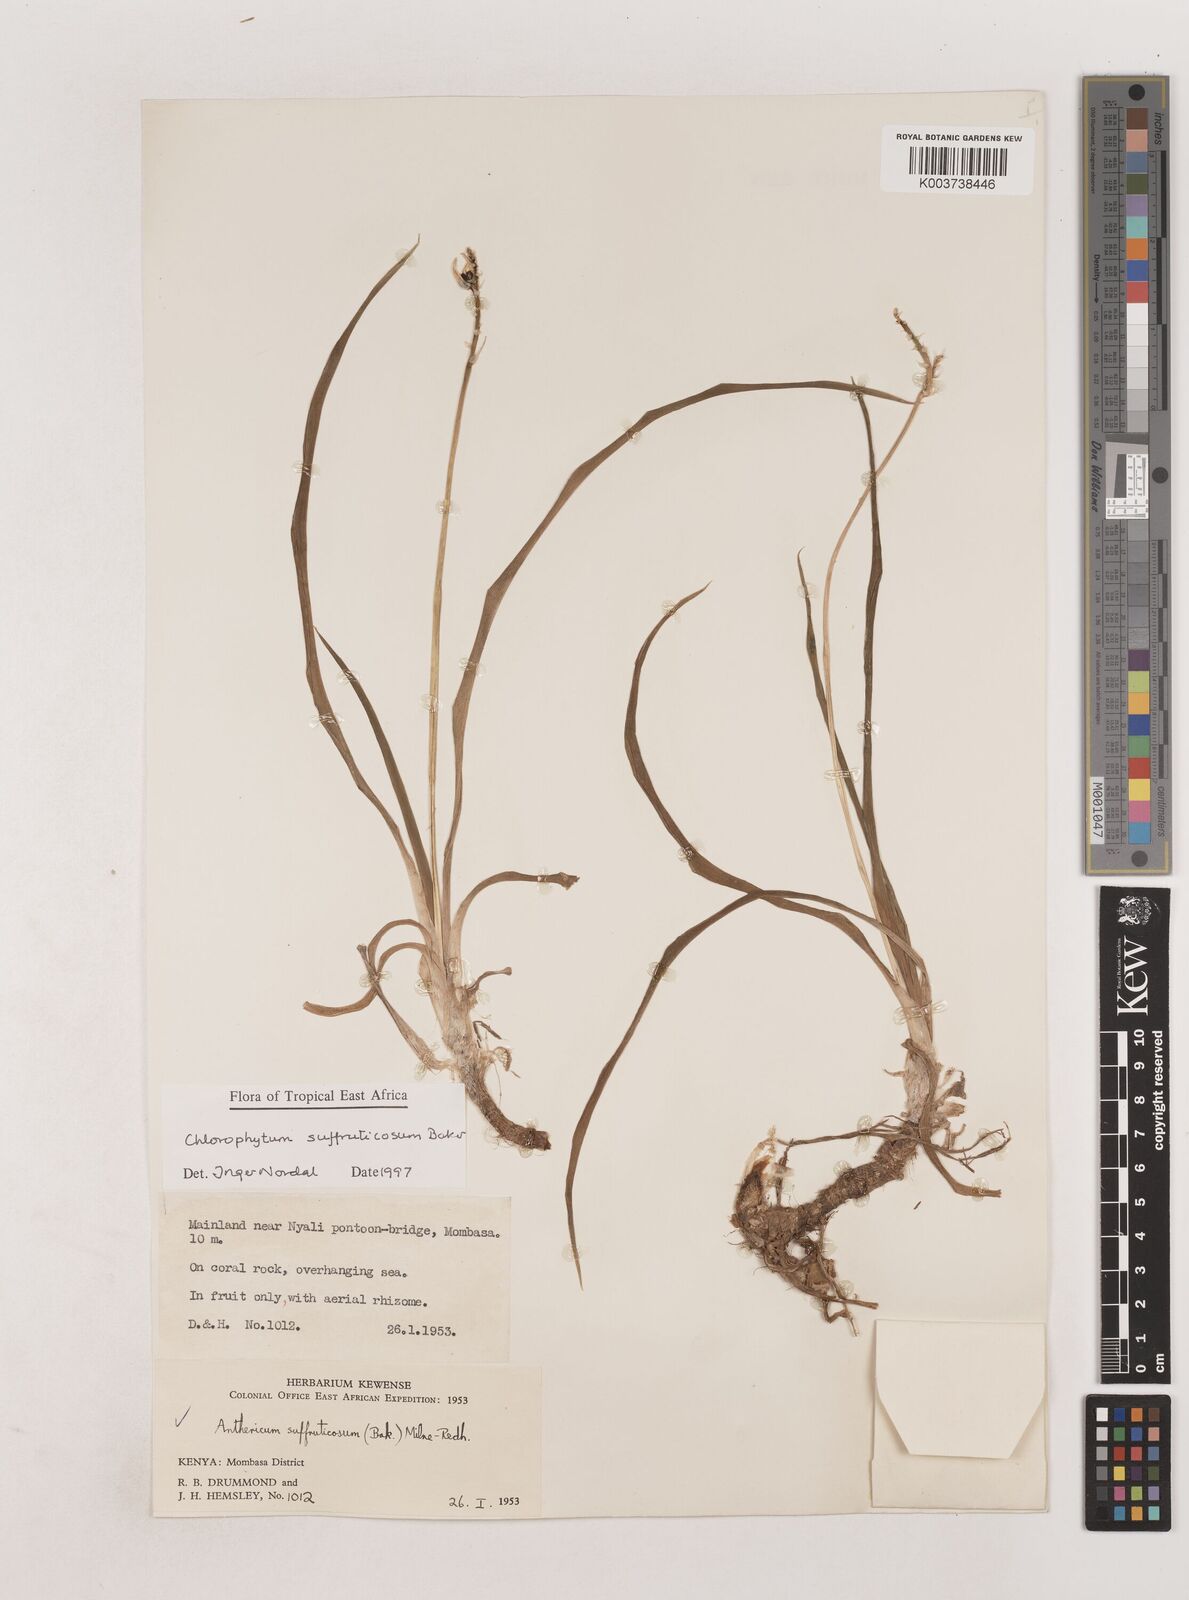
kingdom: Plantae
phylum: Tracheophyta
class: Liliopsida
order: Asparagales
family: Asparagaceae
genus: Chlorophytum
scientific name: Chlorophytum suffruticosum
